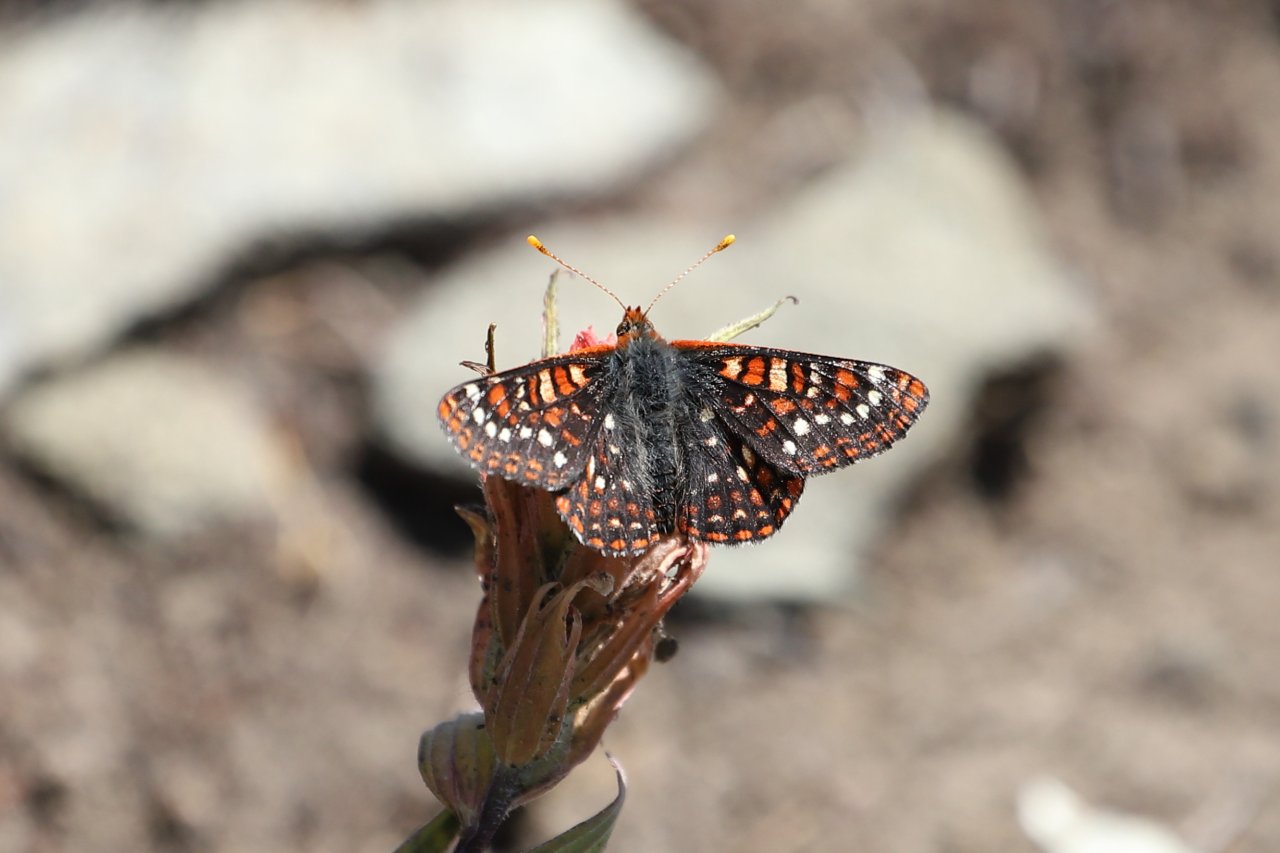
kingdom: Animalia
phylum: Arthropoda
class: Insecta
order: Lepidoptera
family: Nymphalidae
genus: Occidryas
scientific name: Occidryas editha
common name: Edith's Checkerspot
